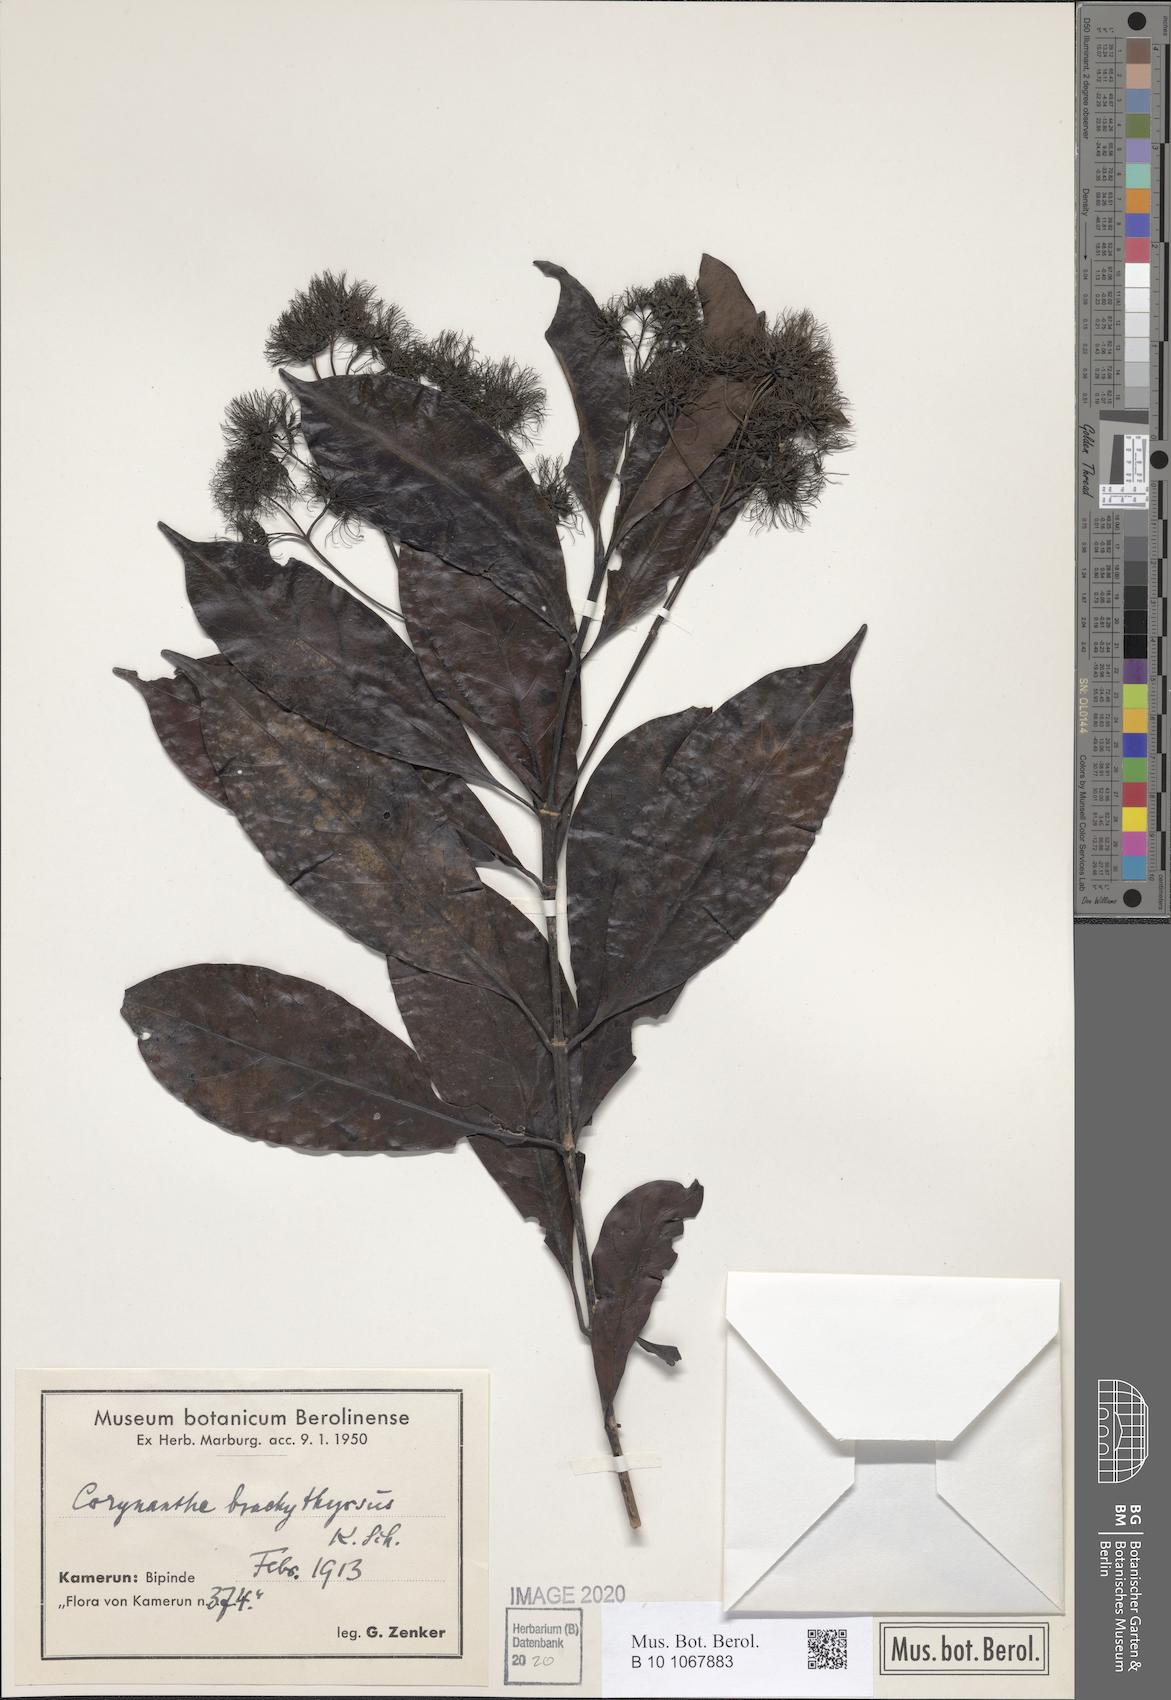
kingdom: Plantae
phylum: Tracheophyta
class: Magnoliopsida
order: Gentianales
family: Rubiaceae
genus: Corynanthe
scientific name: Corynanthe macroceras
